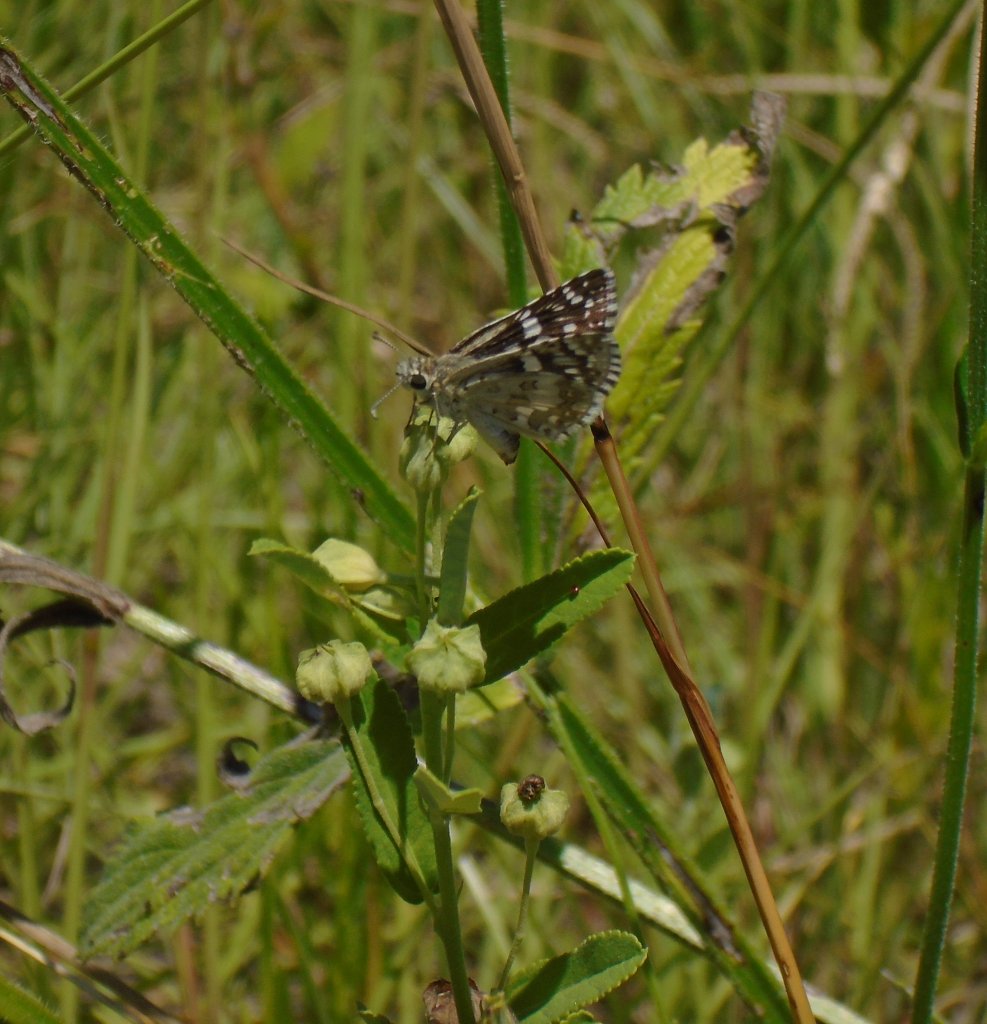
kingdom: Animalia
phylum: Arthropoda
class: Insecta
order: Lepidoptera
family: Hesperiidae
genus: Pyrgus
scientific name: Pyrgus communis
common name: Common Checkered-Skipper
